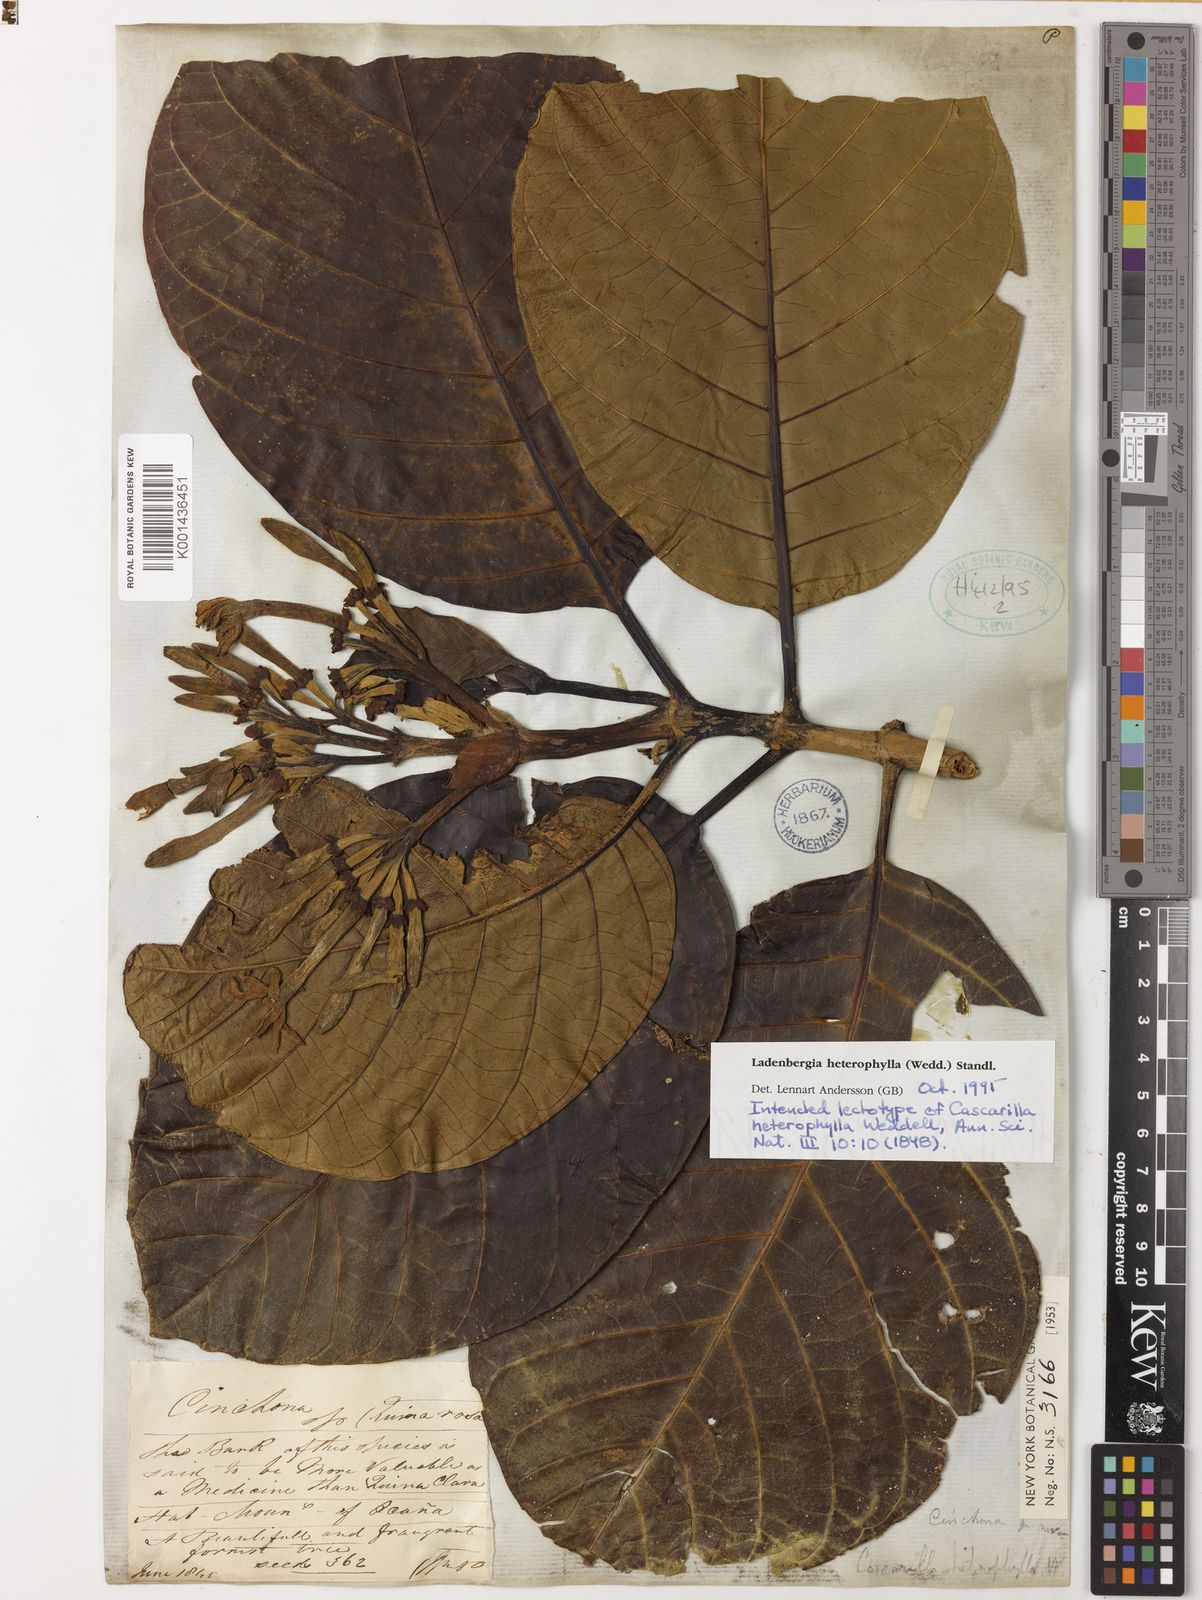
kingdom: Plantae
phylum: Tracheophyta
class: Magnoliopsida
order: Gentianales
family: Rubiaceae
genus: Ladenbergia
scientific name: Ladenbergia heterophylla
